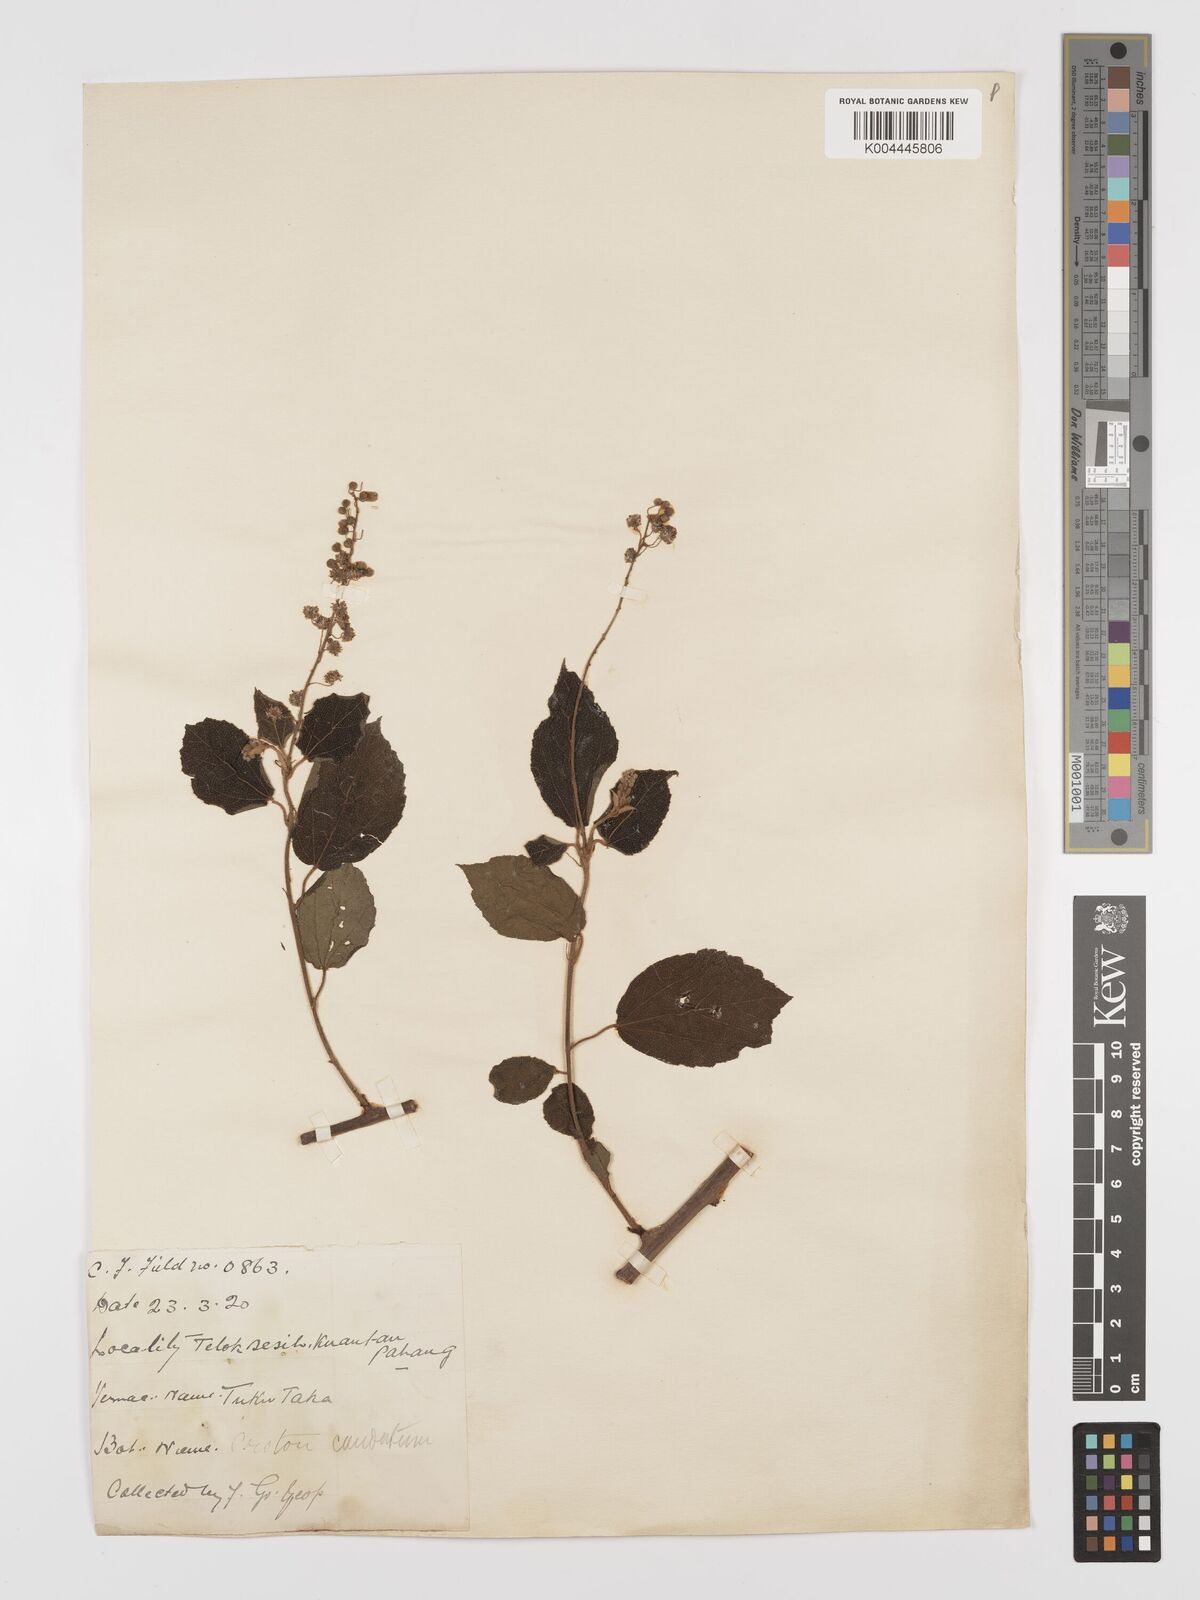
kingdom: Plantae
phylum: Tracheophyta
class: Magnoliopsida
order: Malpighiales
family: Euphorbiaceae
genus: Croton
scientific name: Croton caudatus
